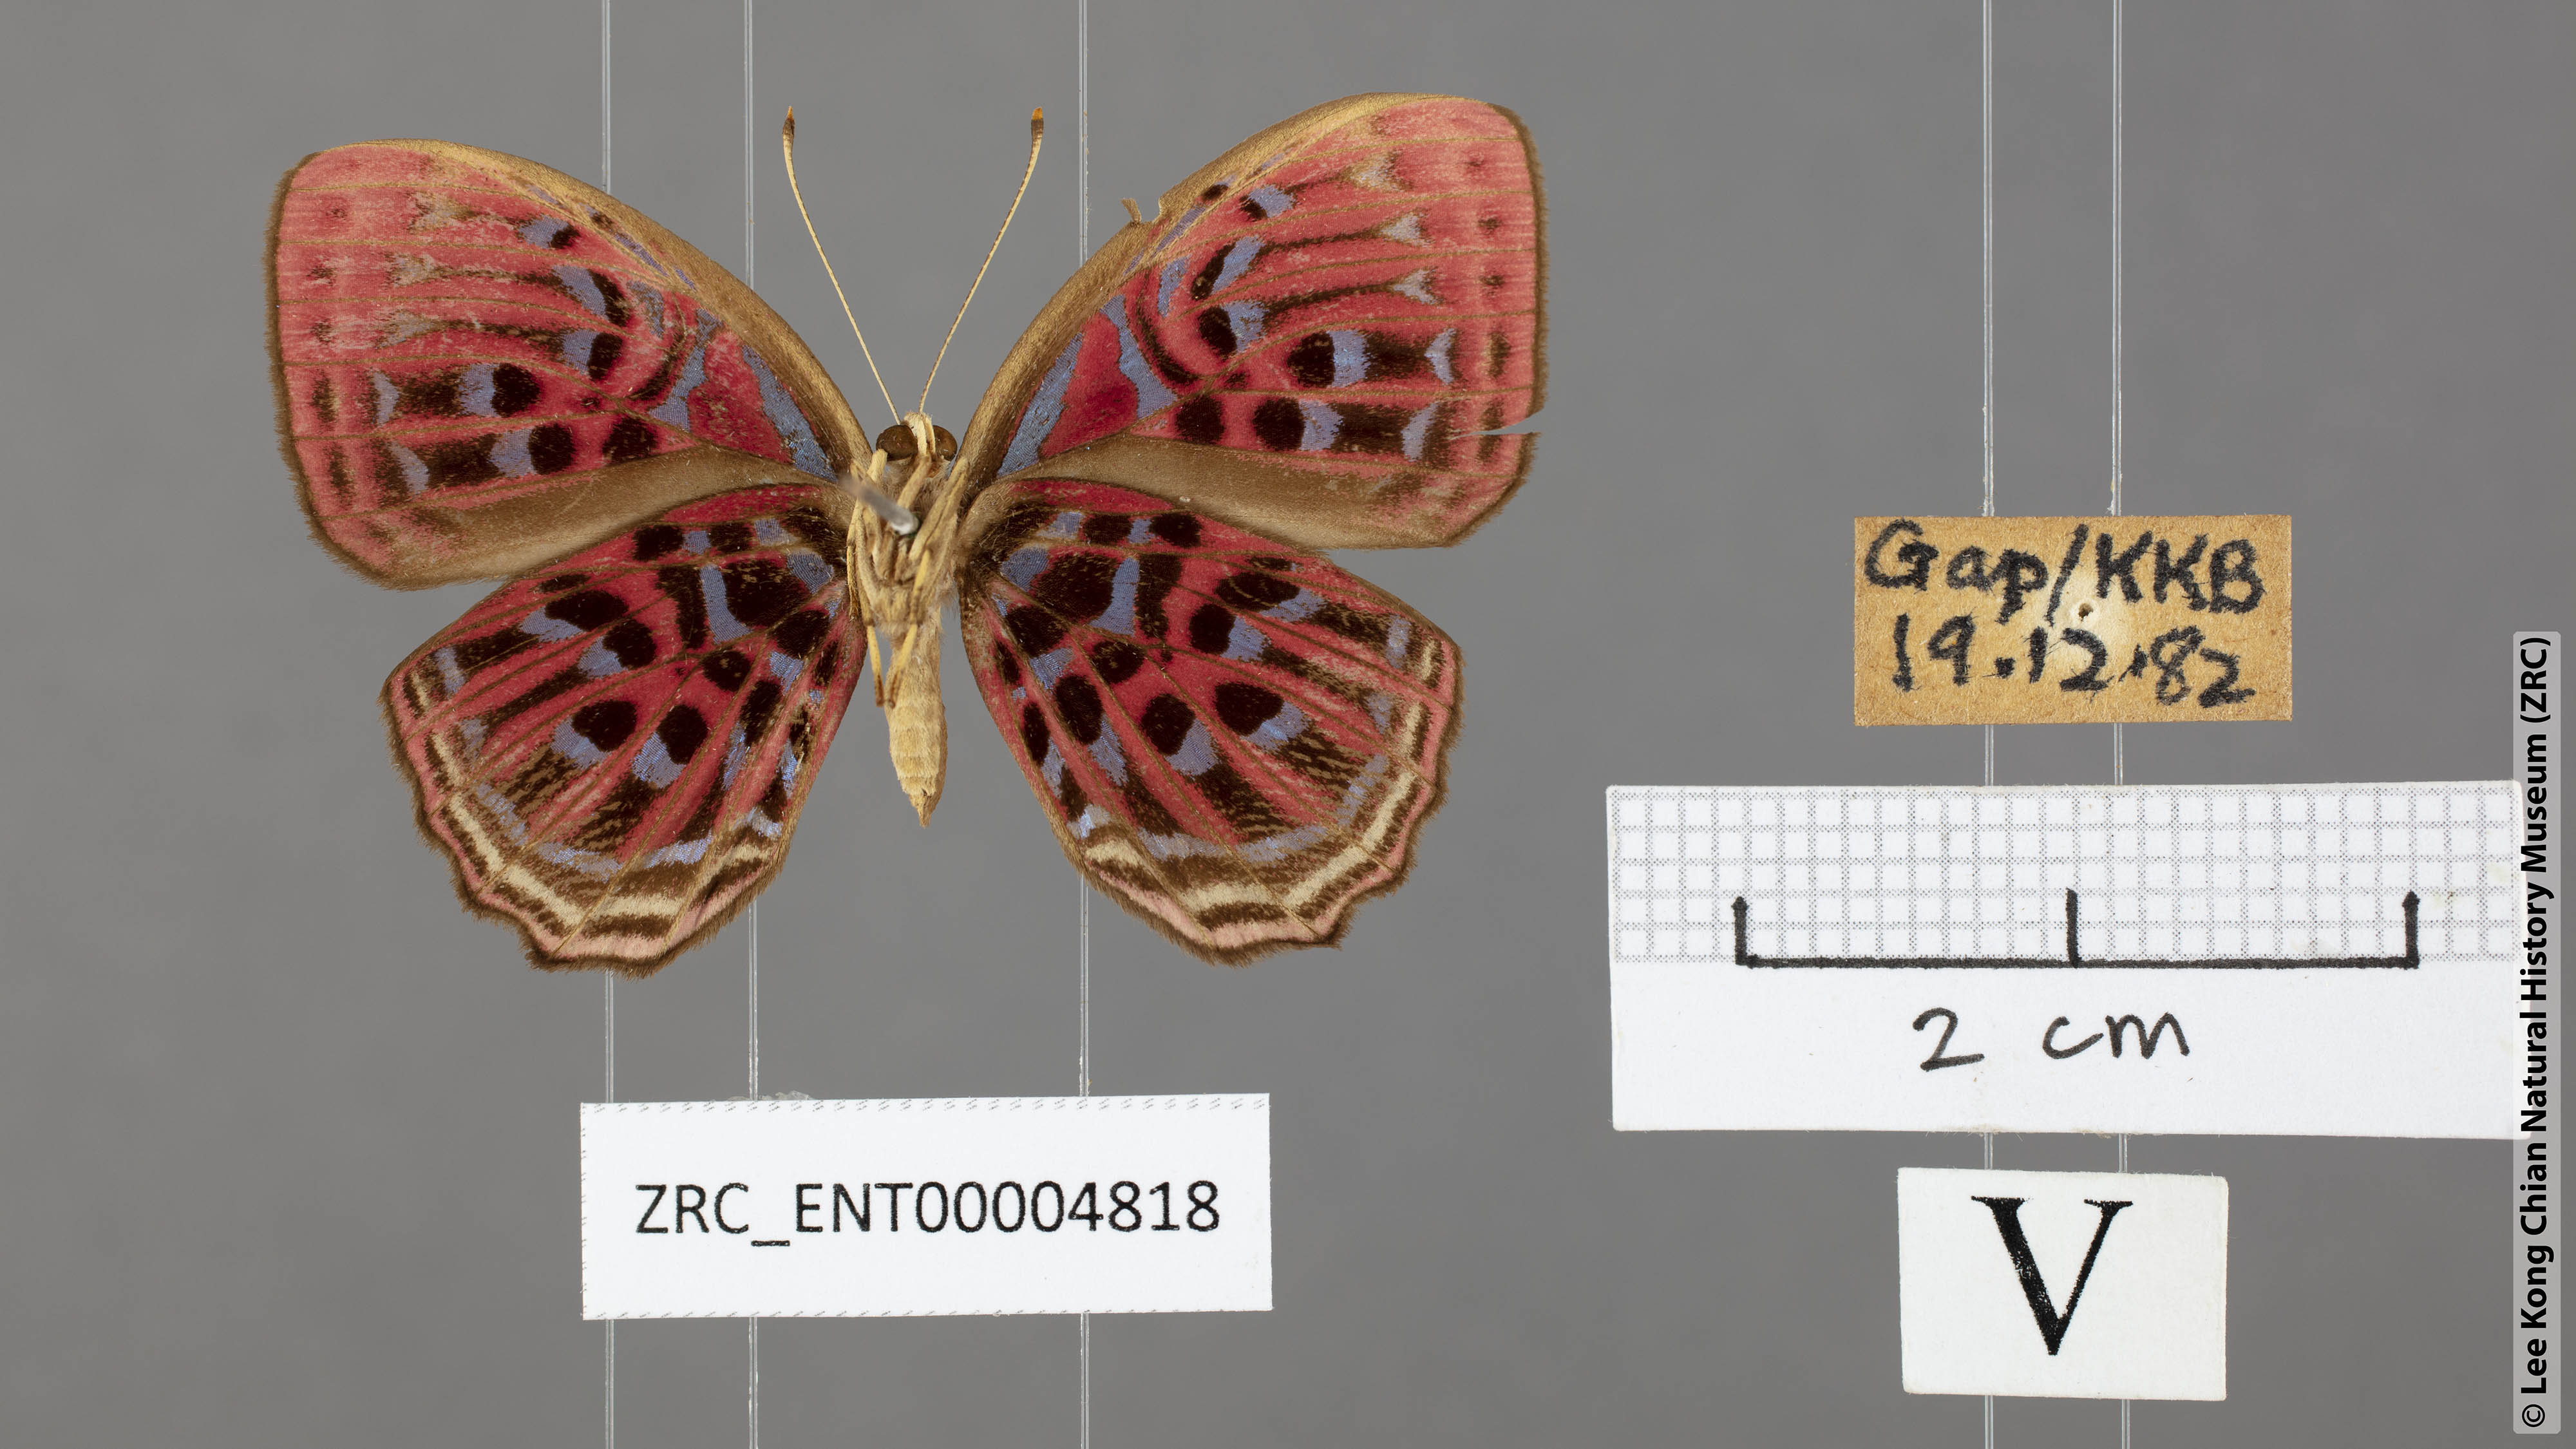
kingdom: Animalia
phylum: Arthropoda
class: Insecta
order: Lepidoptera
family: Lycaenidae
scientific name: Lycaenidae
